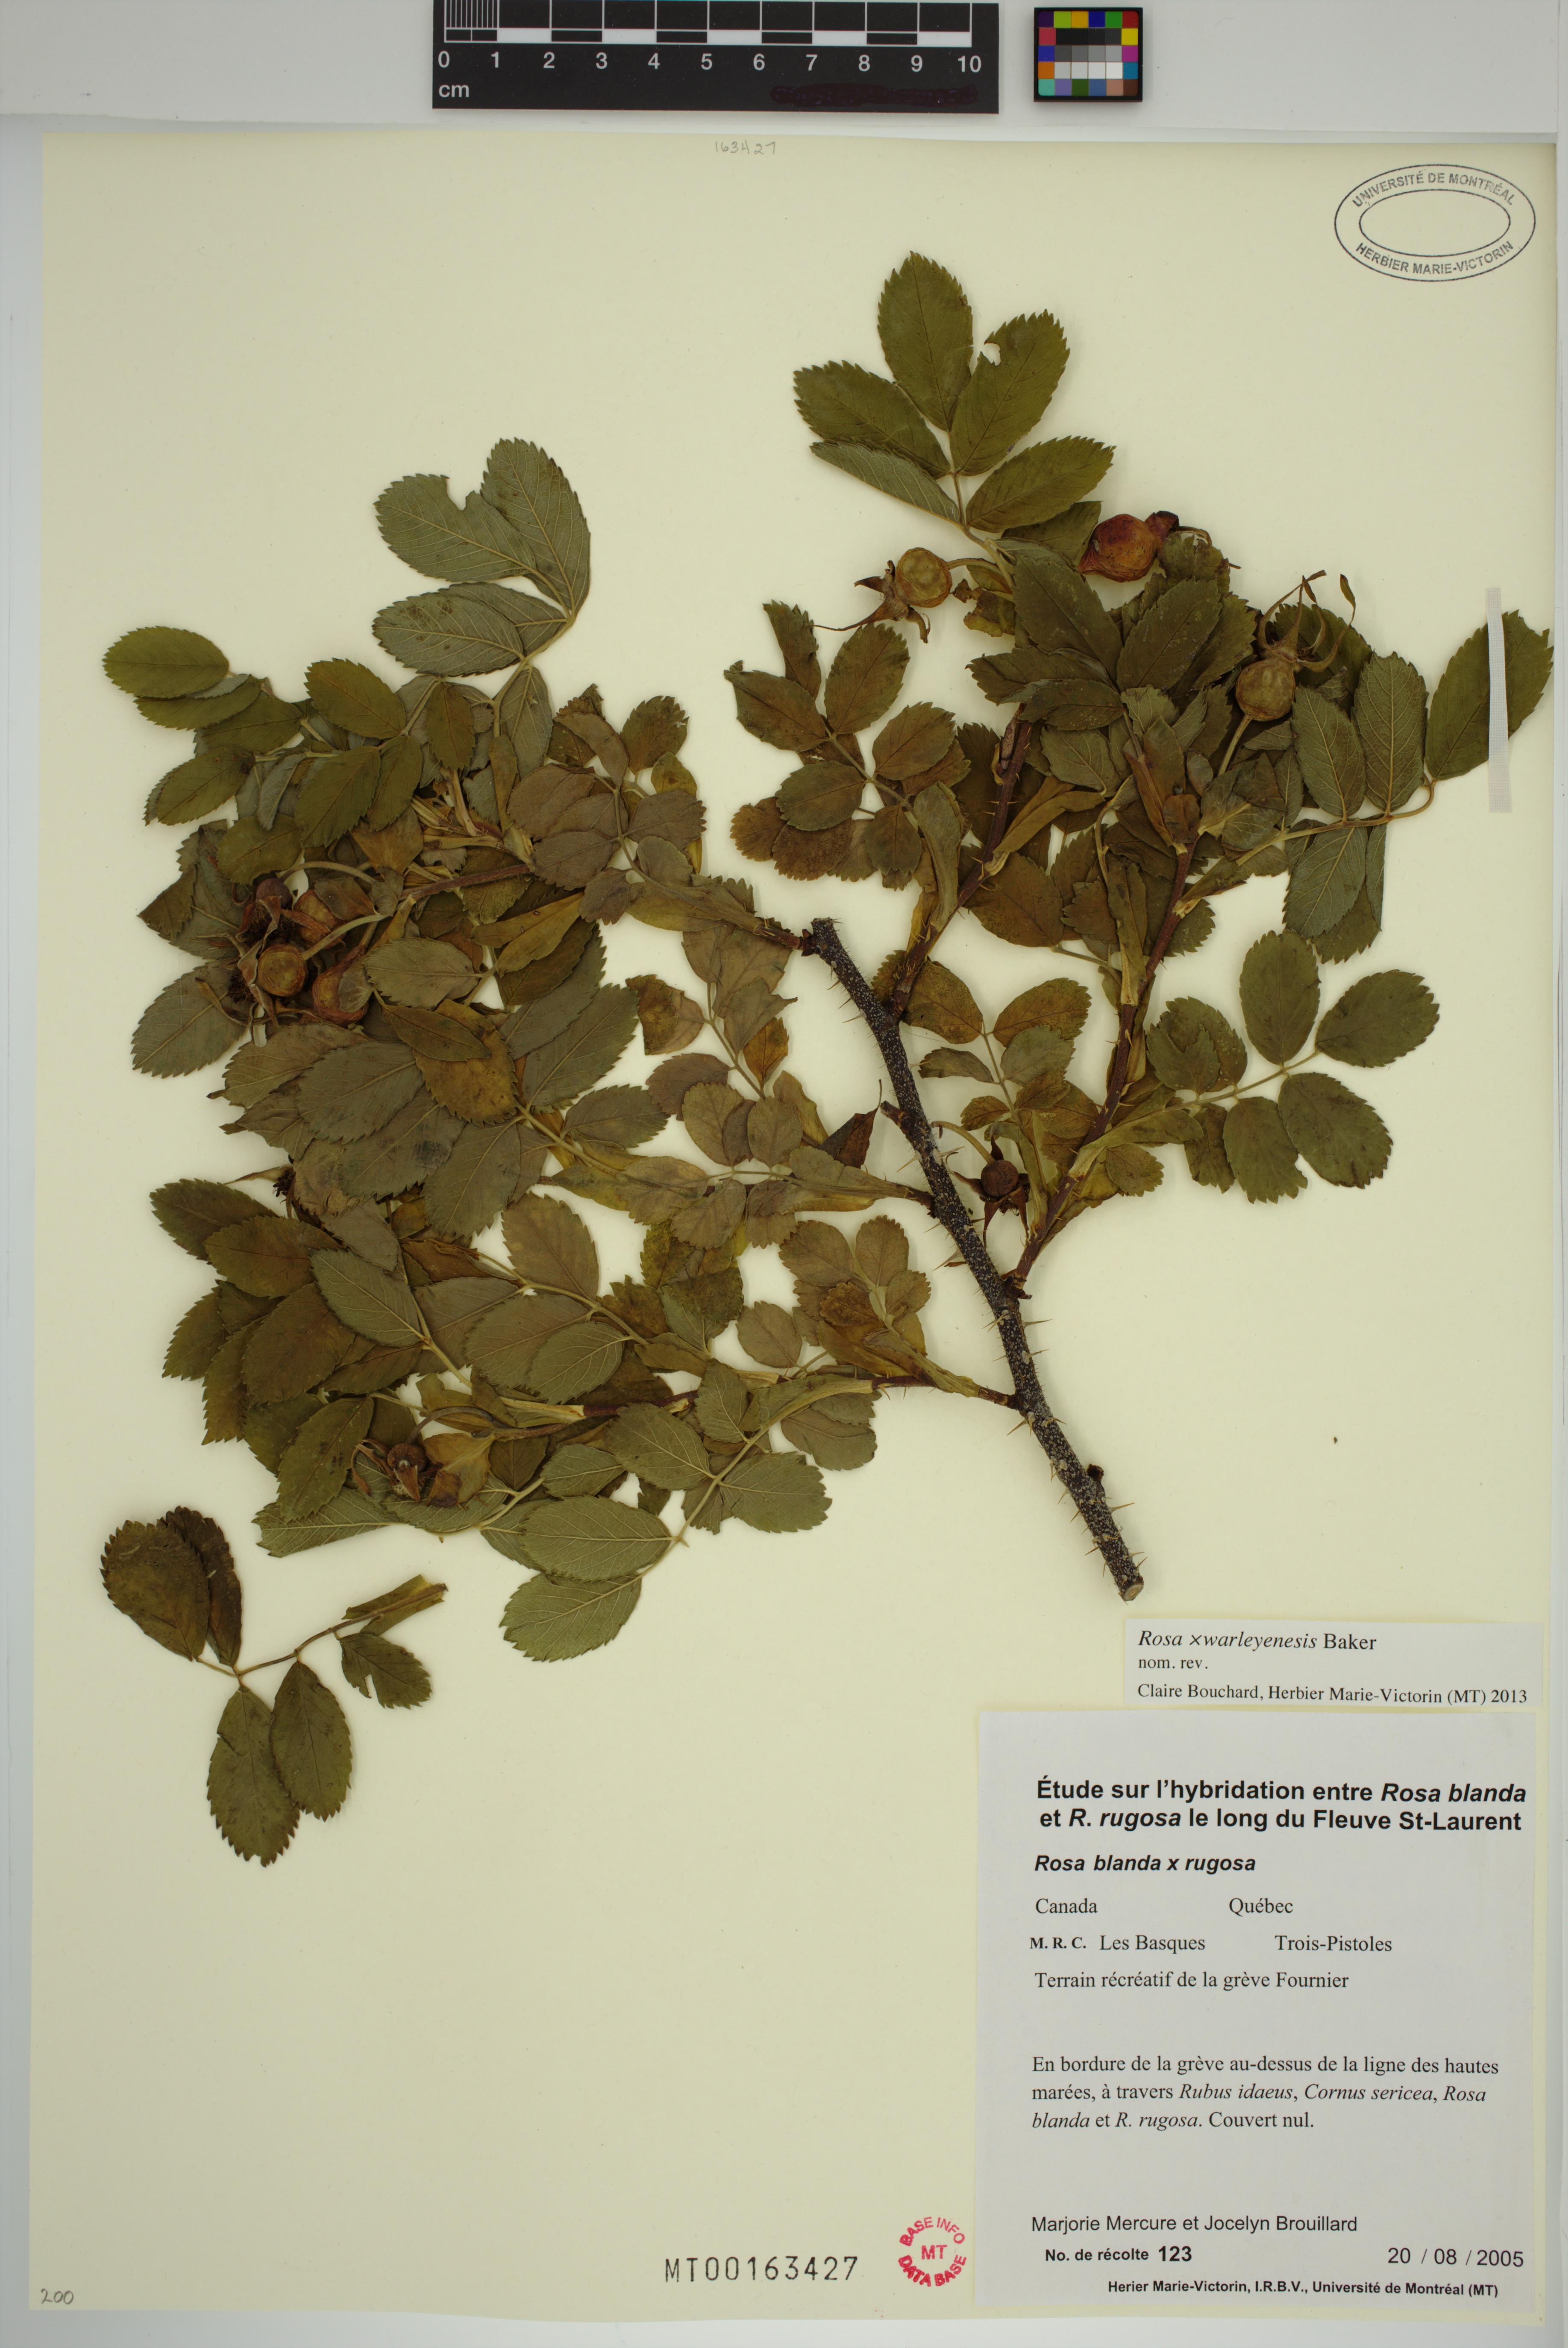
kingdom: Plantae
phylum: Tracheophyta
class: Magnoliopsida
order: Rosales
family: Rosaceae
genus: Rosa
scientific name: Rosa warleyensis
